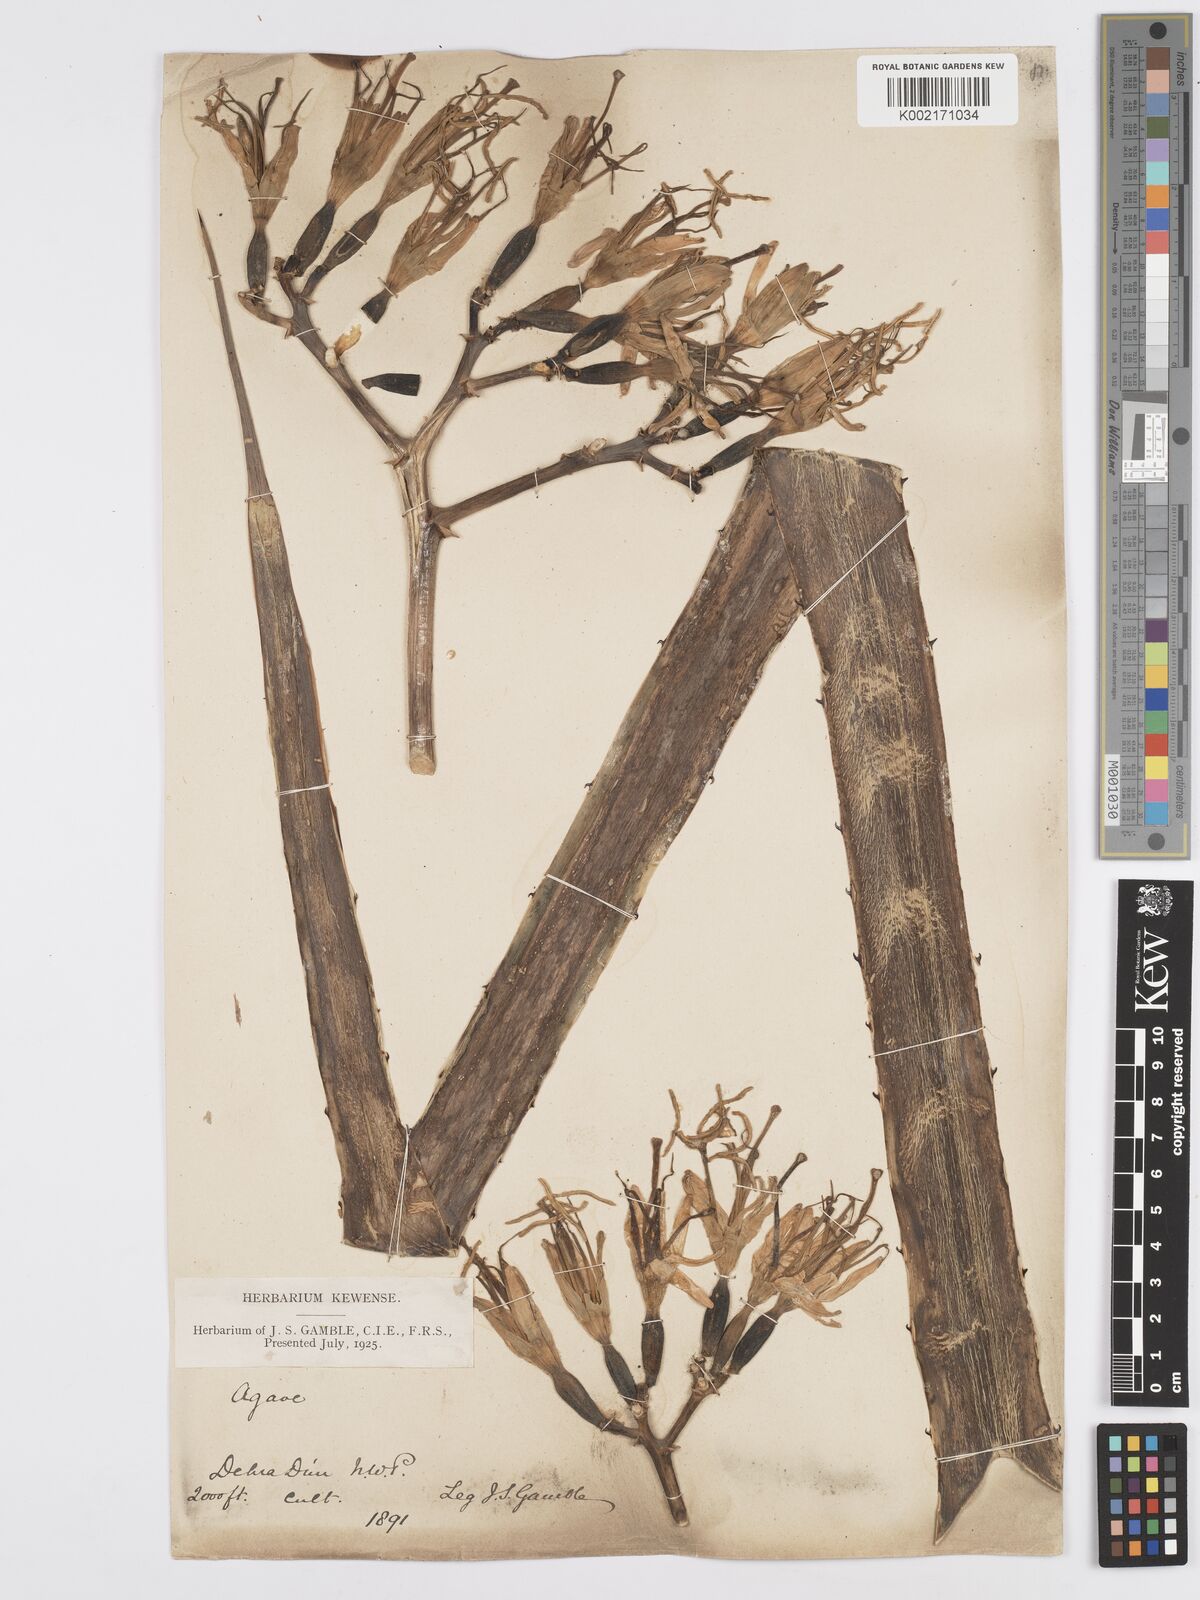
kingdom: Plantae
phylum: Tracheophyta
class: Liliopsida
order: Asparagales
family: Asparagaceae
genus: Agave
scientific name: Agave americana
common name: Centuryplant
